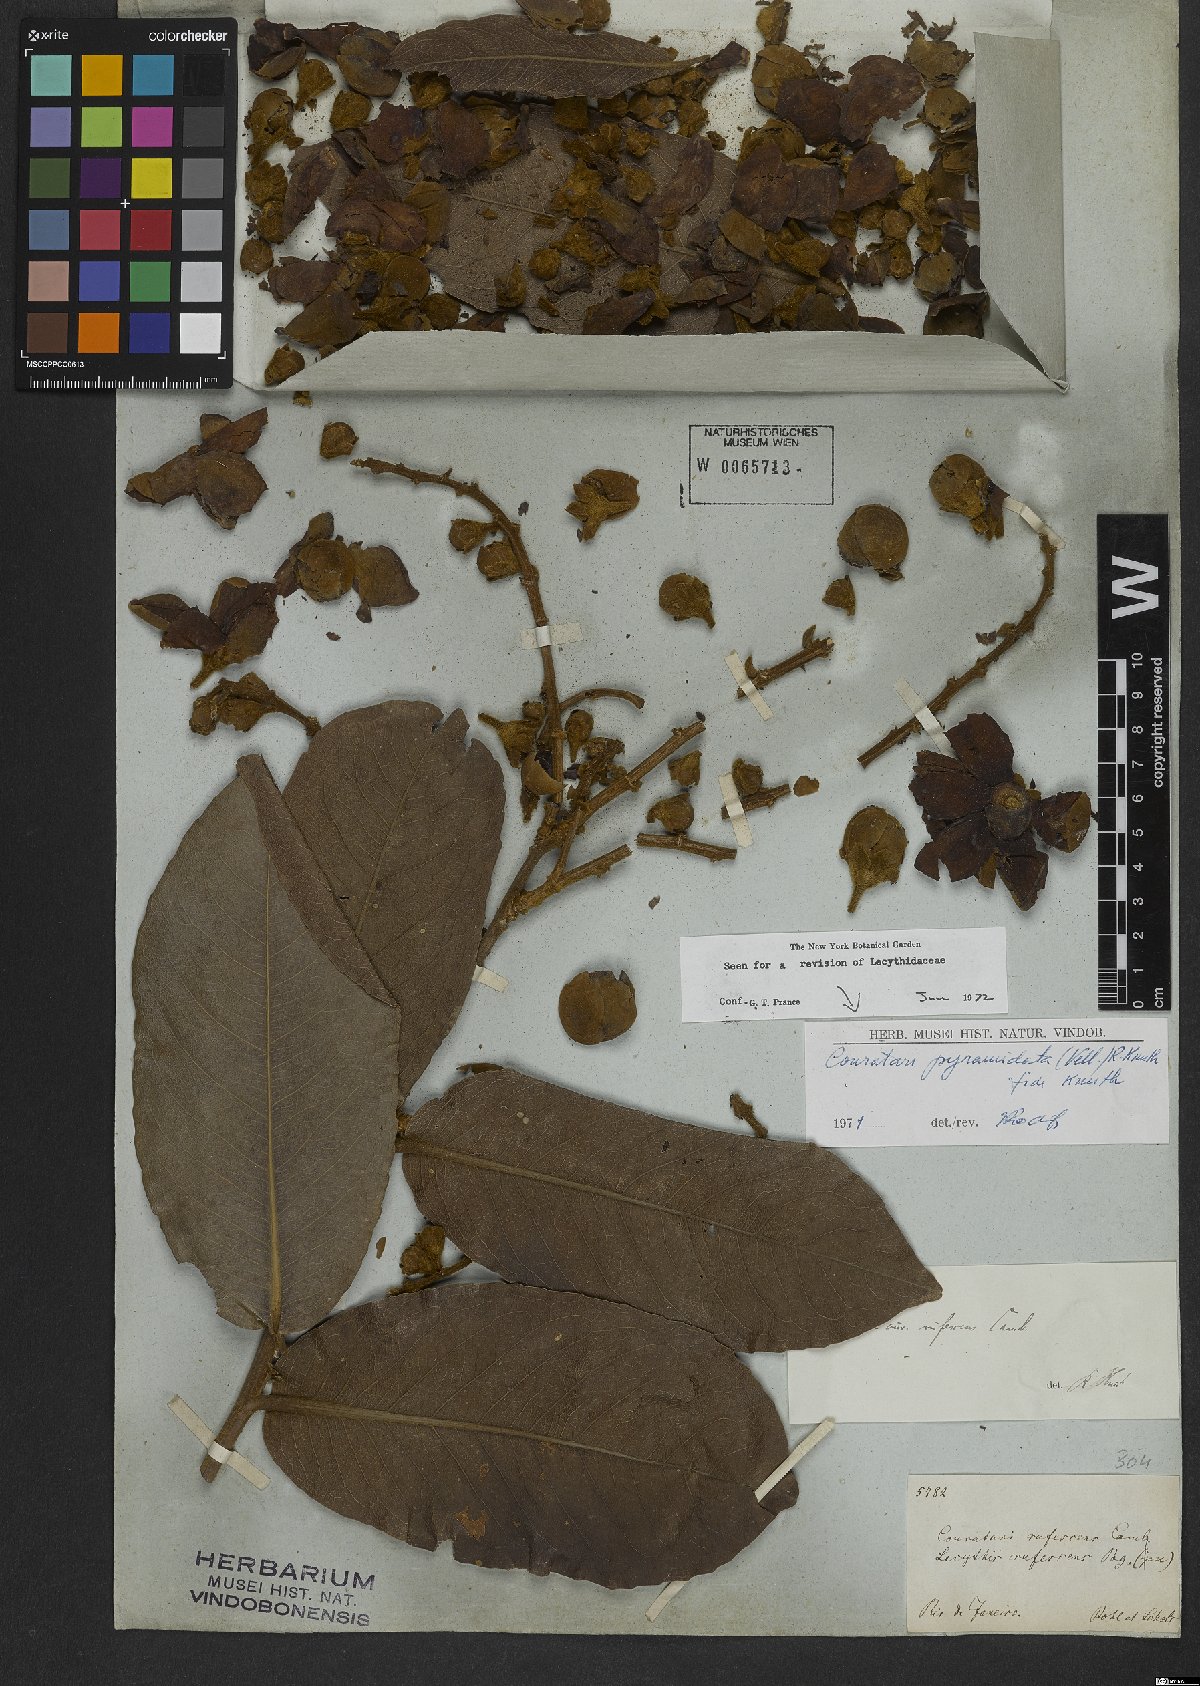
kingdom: Plantae
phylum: Tracheophyta
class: Magnoliopsida
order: Ericales
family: Lecythidaceae
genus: Couratari
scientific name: Couratari pyramidata
